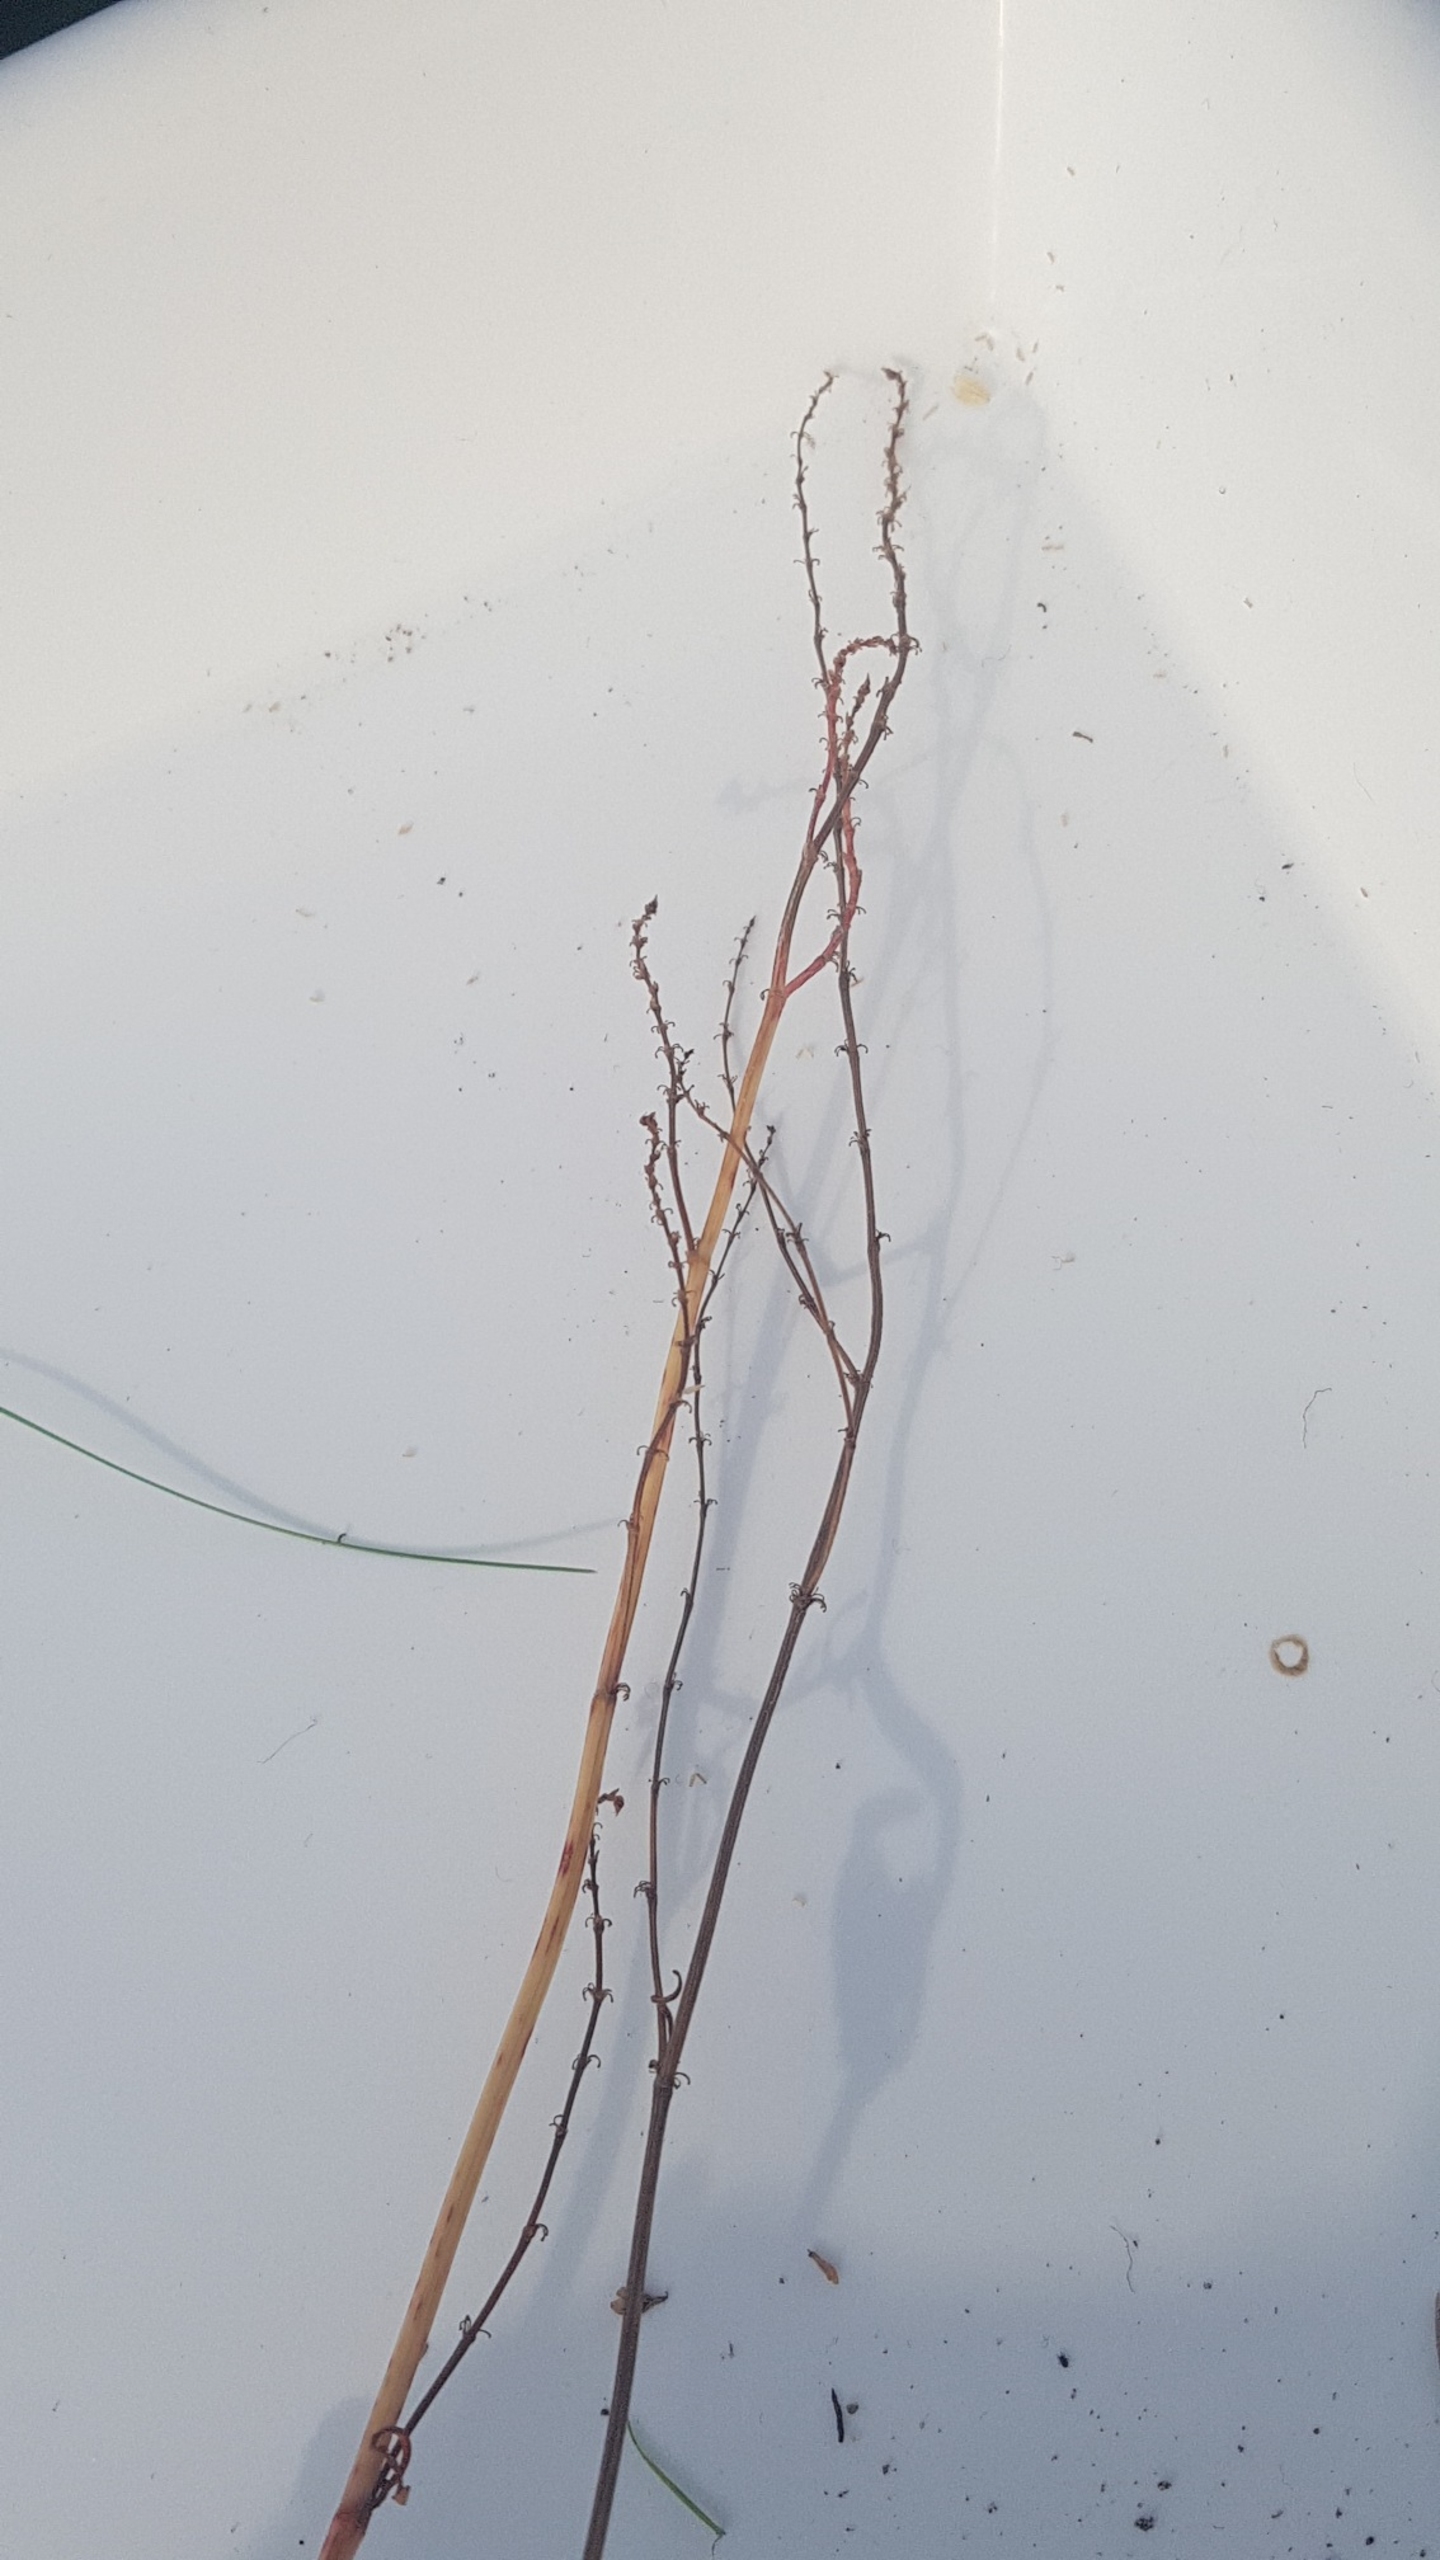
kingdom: Plantae
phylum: Tracheophyta
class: Magnoliopsida
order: Caryophyllales
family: Polygonaceae
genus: Rumex
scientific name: Rumex acetosa
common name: Almindelig syre
